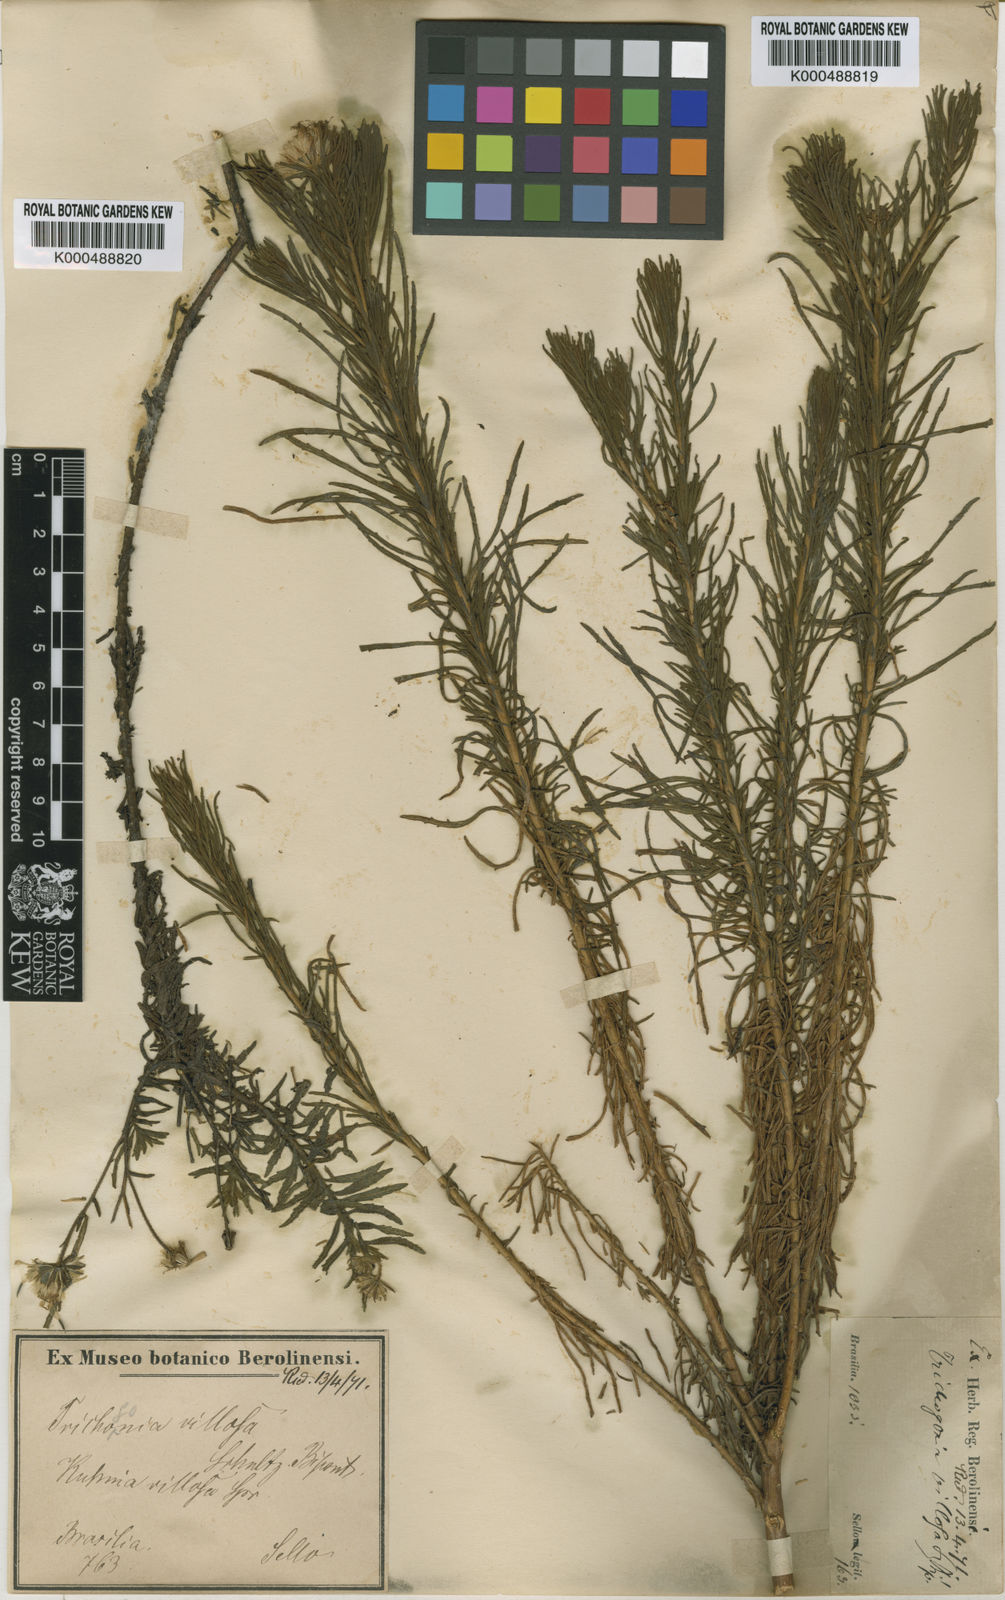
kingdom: Plantae
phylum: Tracheophyta
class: Magnoliopsida
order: Asterales
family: Asteraceae
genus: Trichogonia
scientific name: Trichogonia villosa
